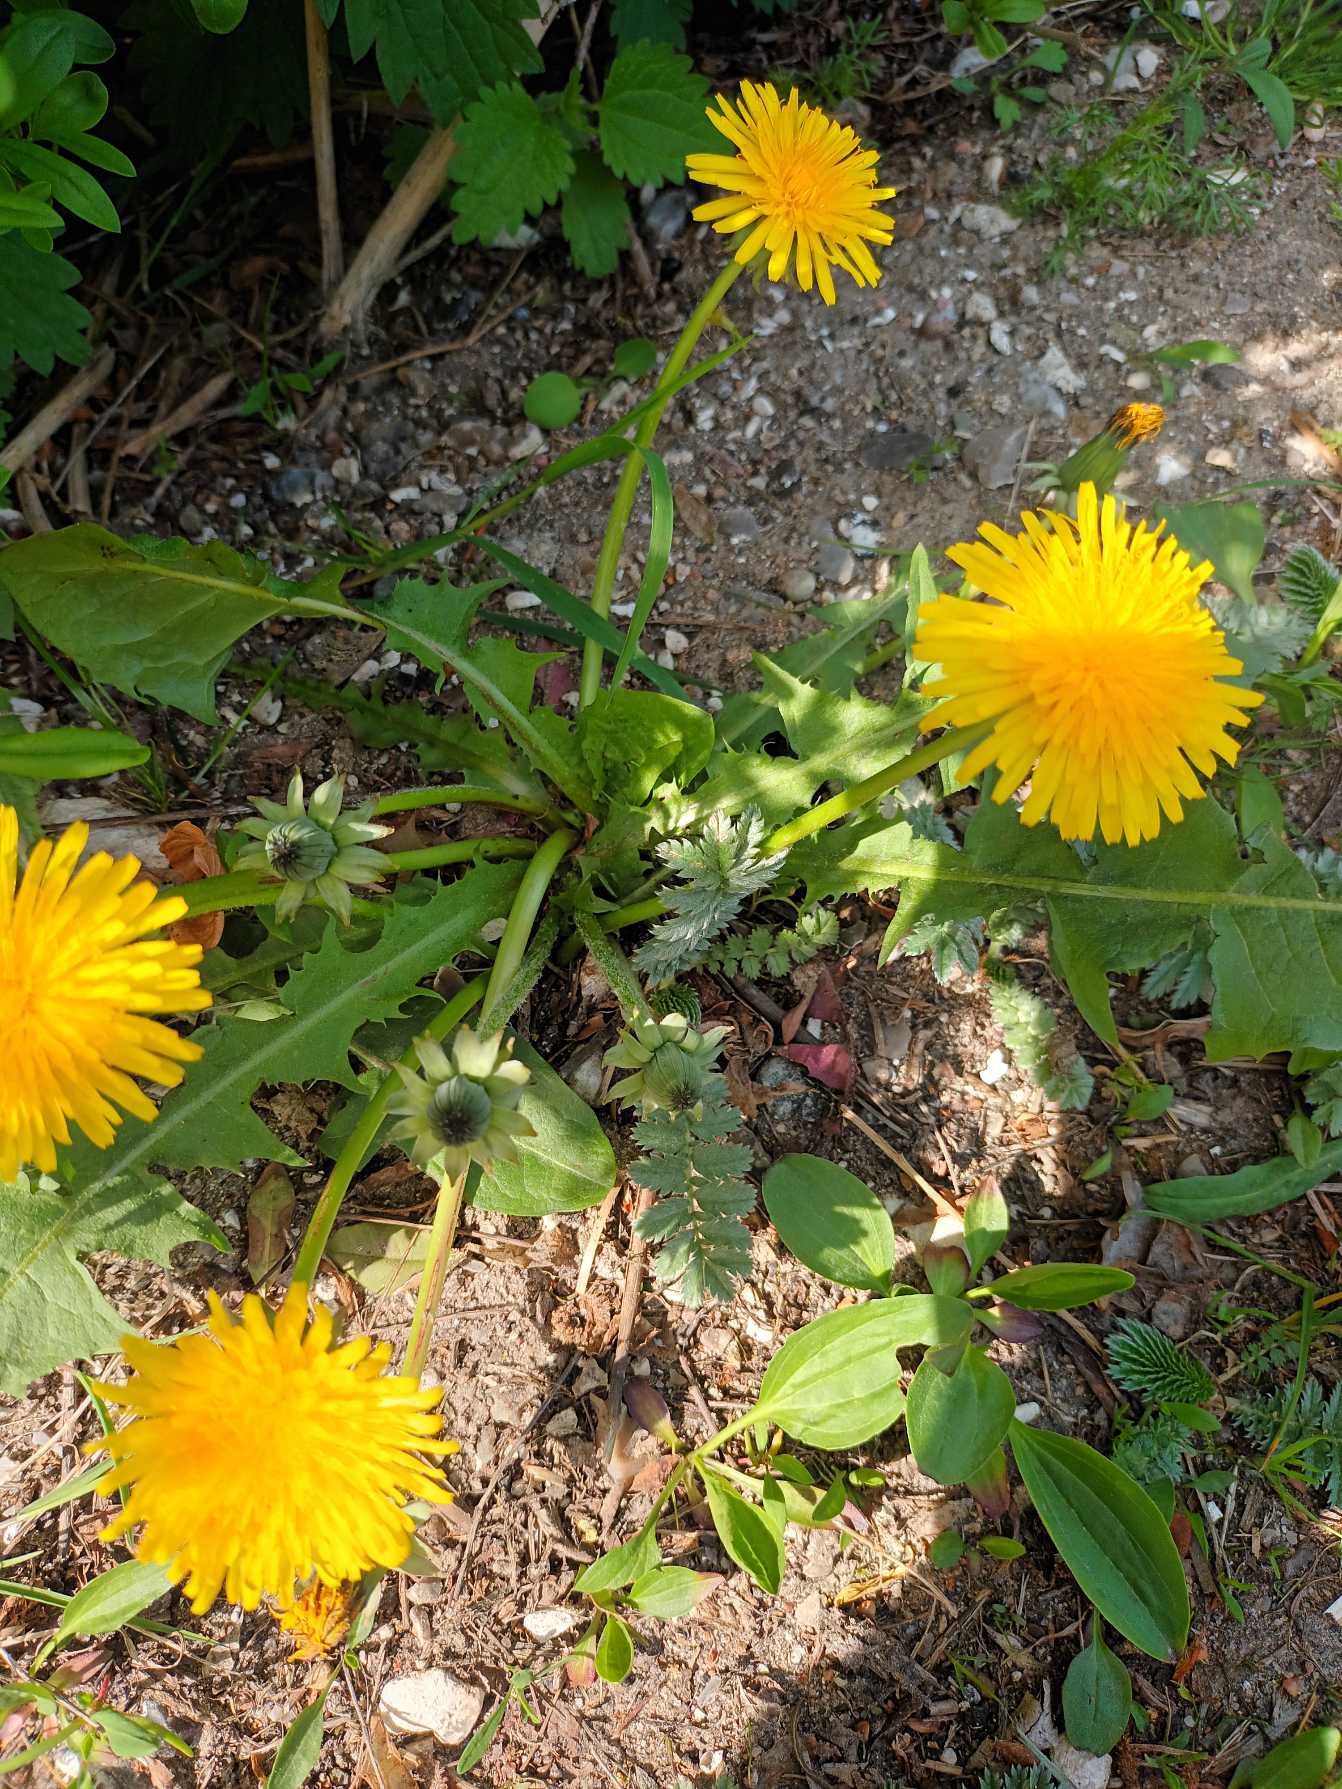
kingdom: Plantae
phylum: Tracheophyta
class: Magnoliopsida
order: Asterales
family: Asteraceae
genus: Taraxacum
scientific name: Taraxacum
